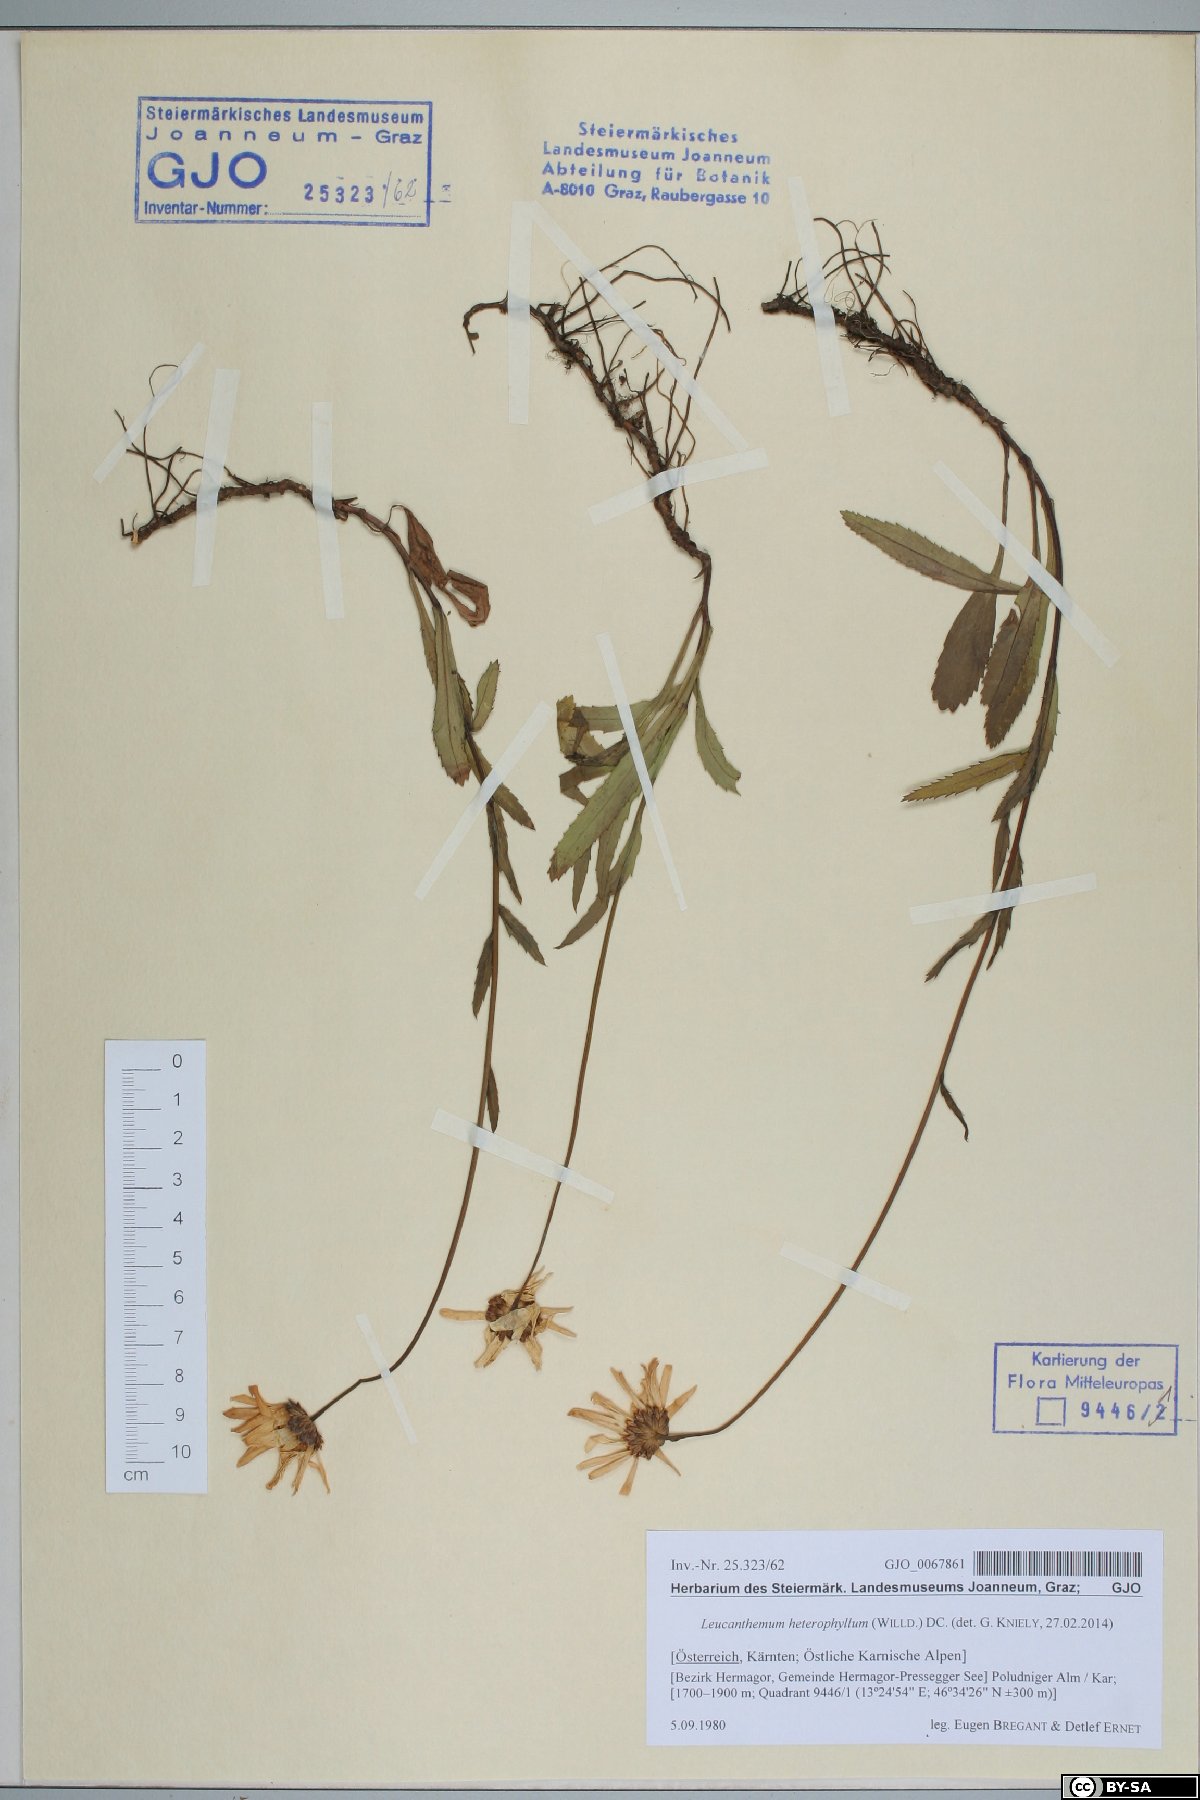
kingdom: Plantae
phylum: Tracheophyta
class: Magnoliopsida
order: Asterales
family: Asteraceae
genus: Leucanthemum
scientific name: Leucanthemum heterophyllum
